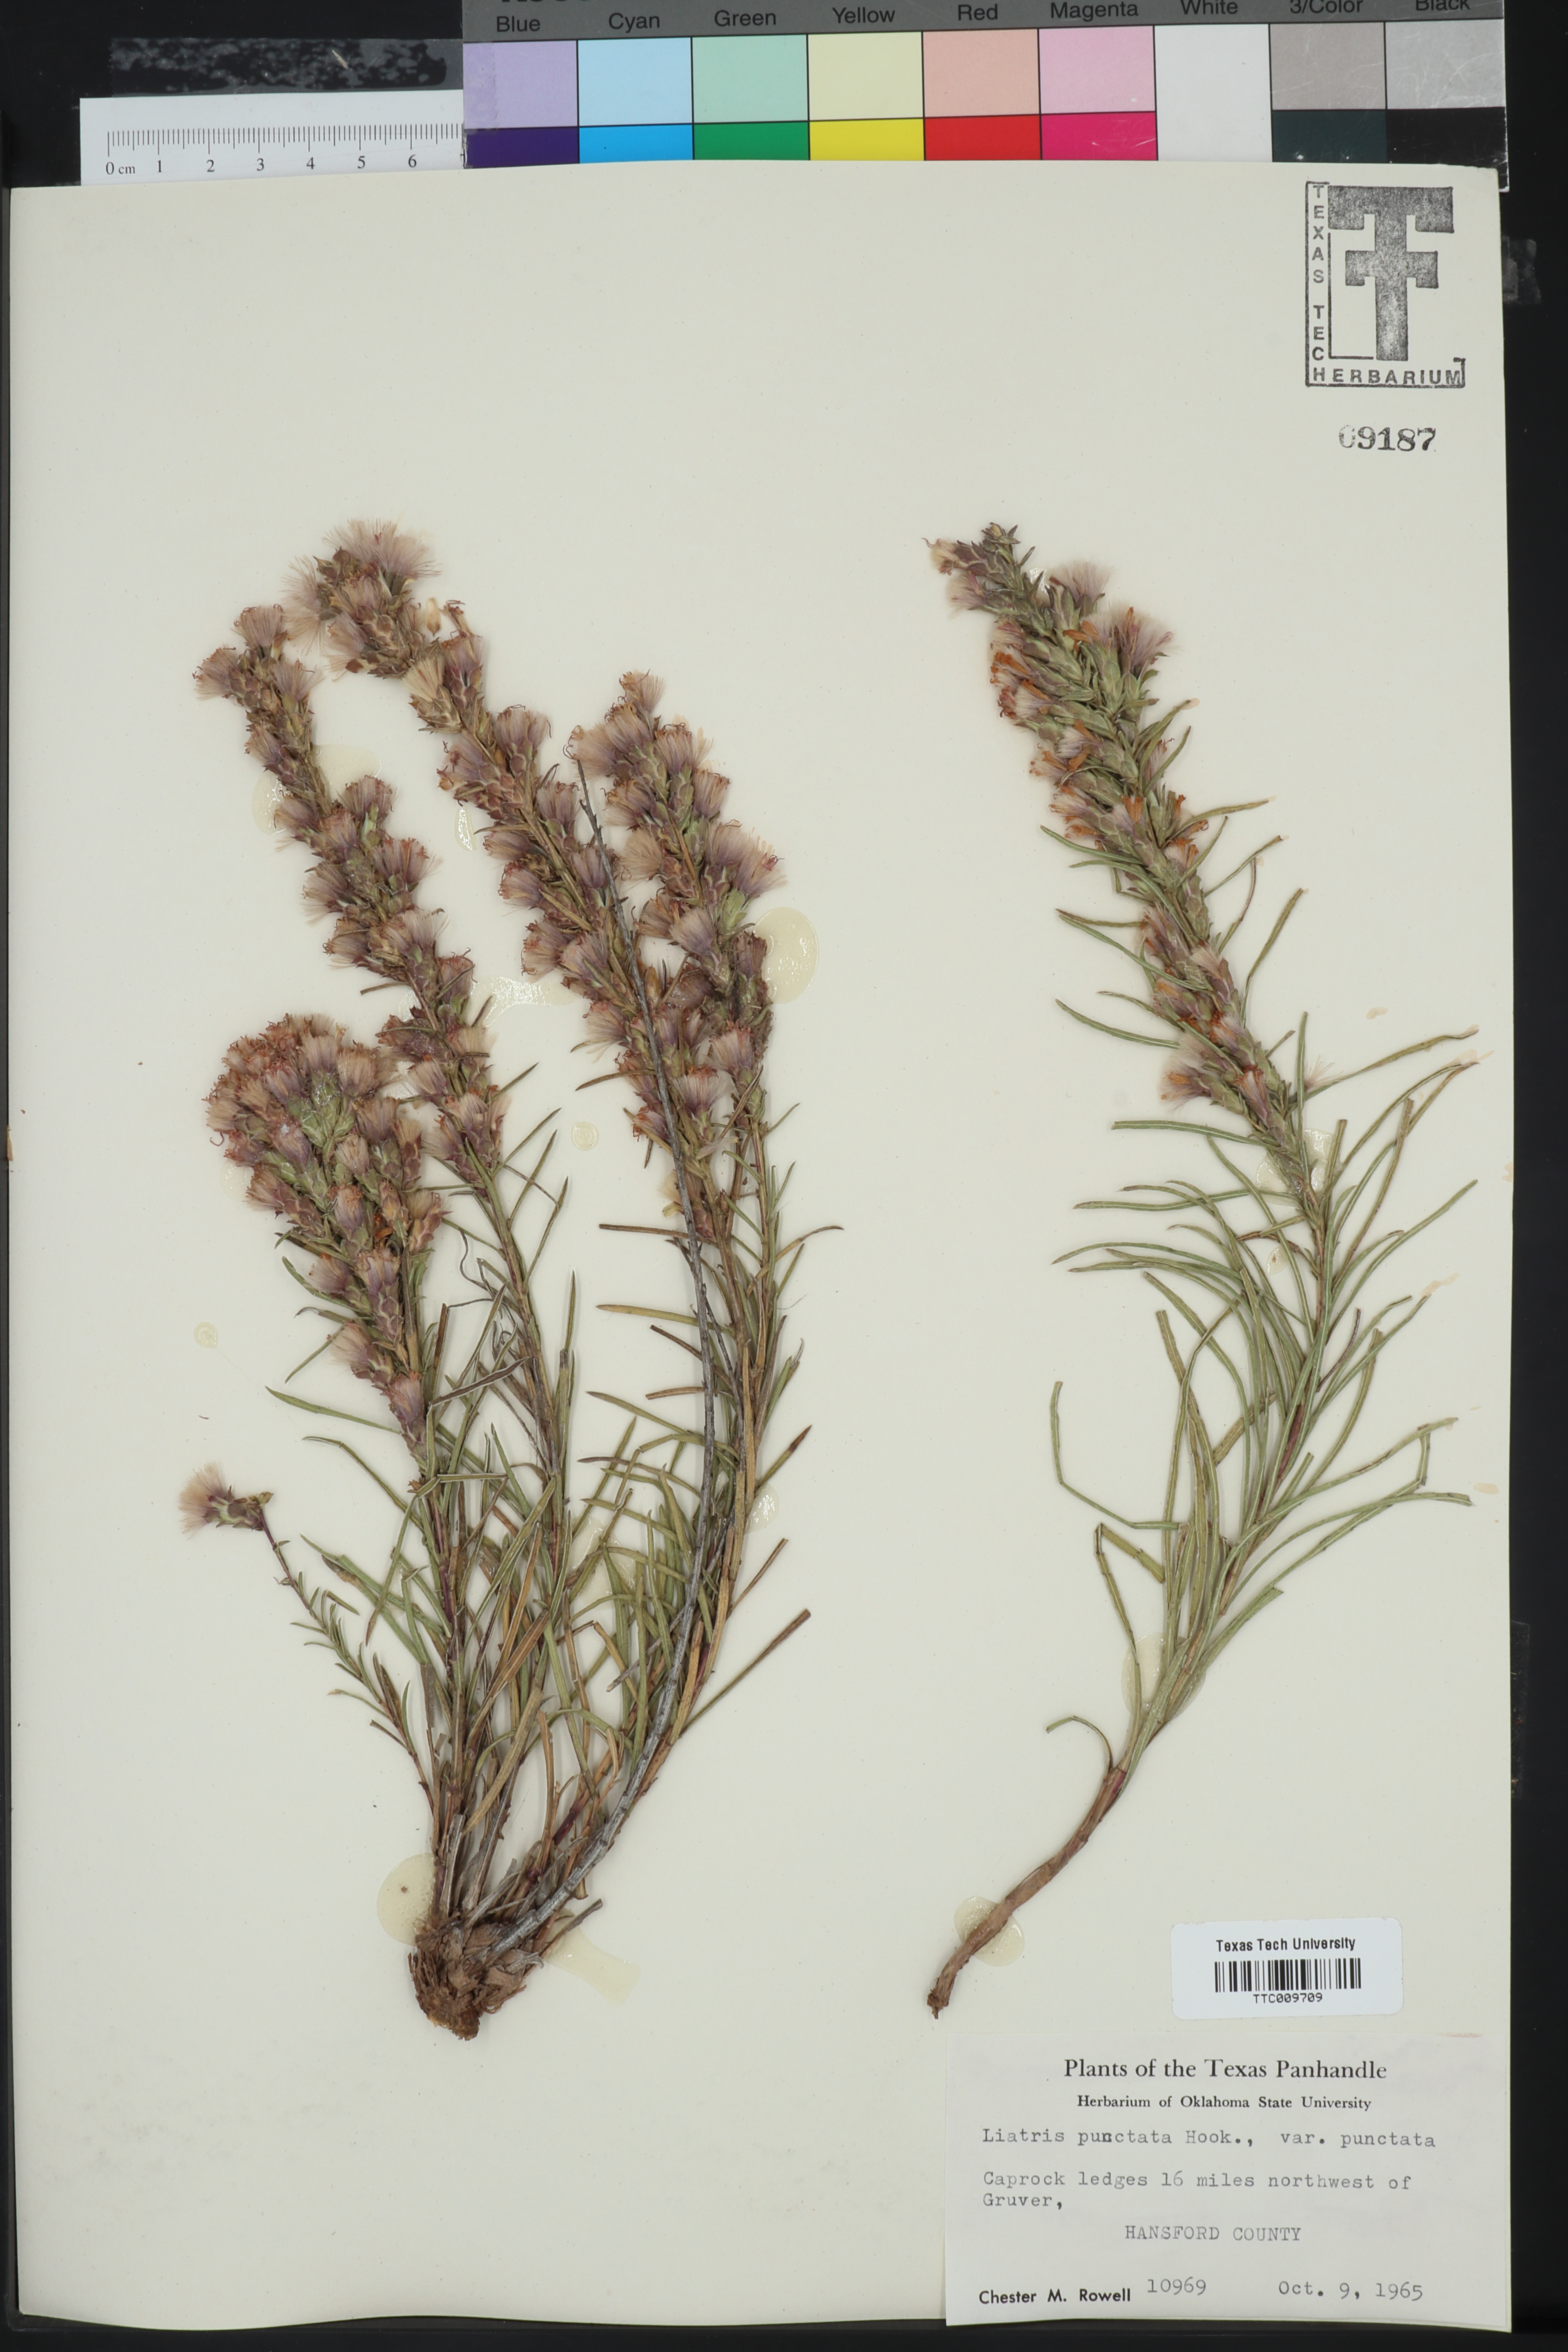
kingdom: Plantae
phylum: Tracheophyta
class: Magnoliopsida
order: Asterales
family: Asteraceae
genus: Liatris
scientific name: Liatris punctata
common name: Dotted gayfeather
